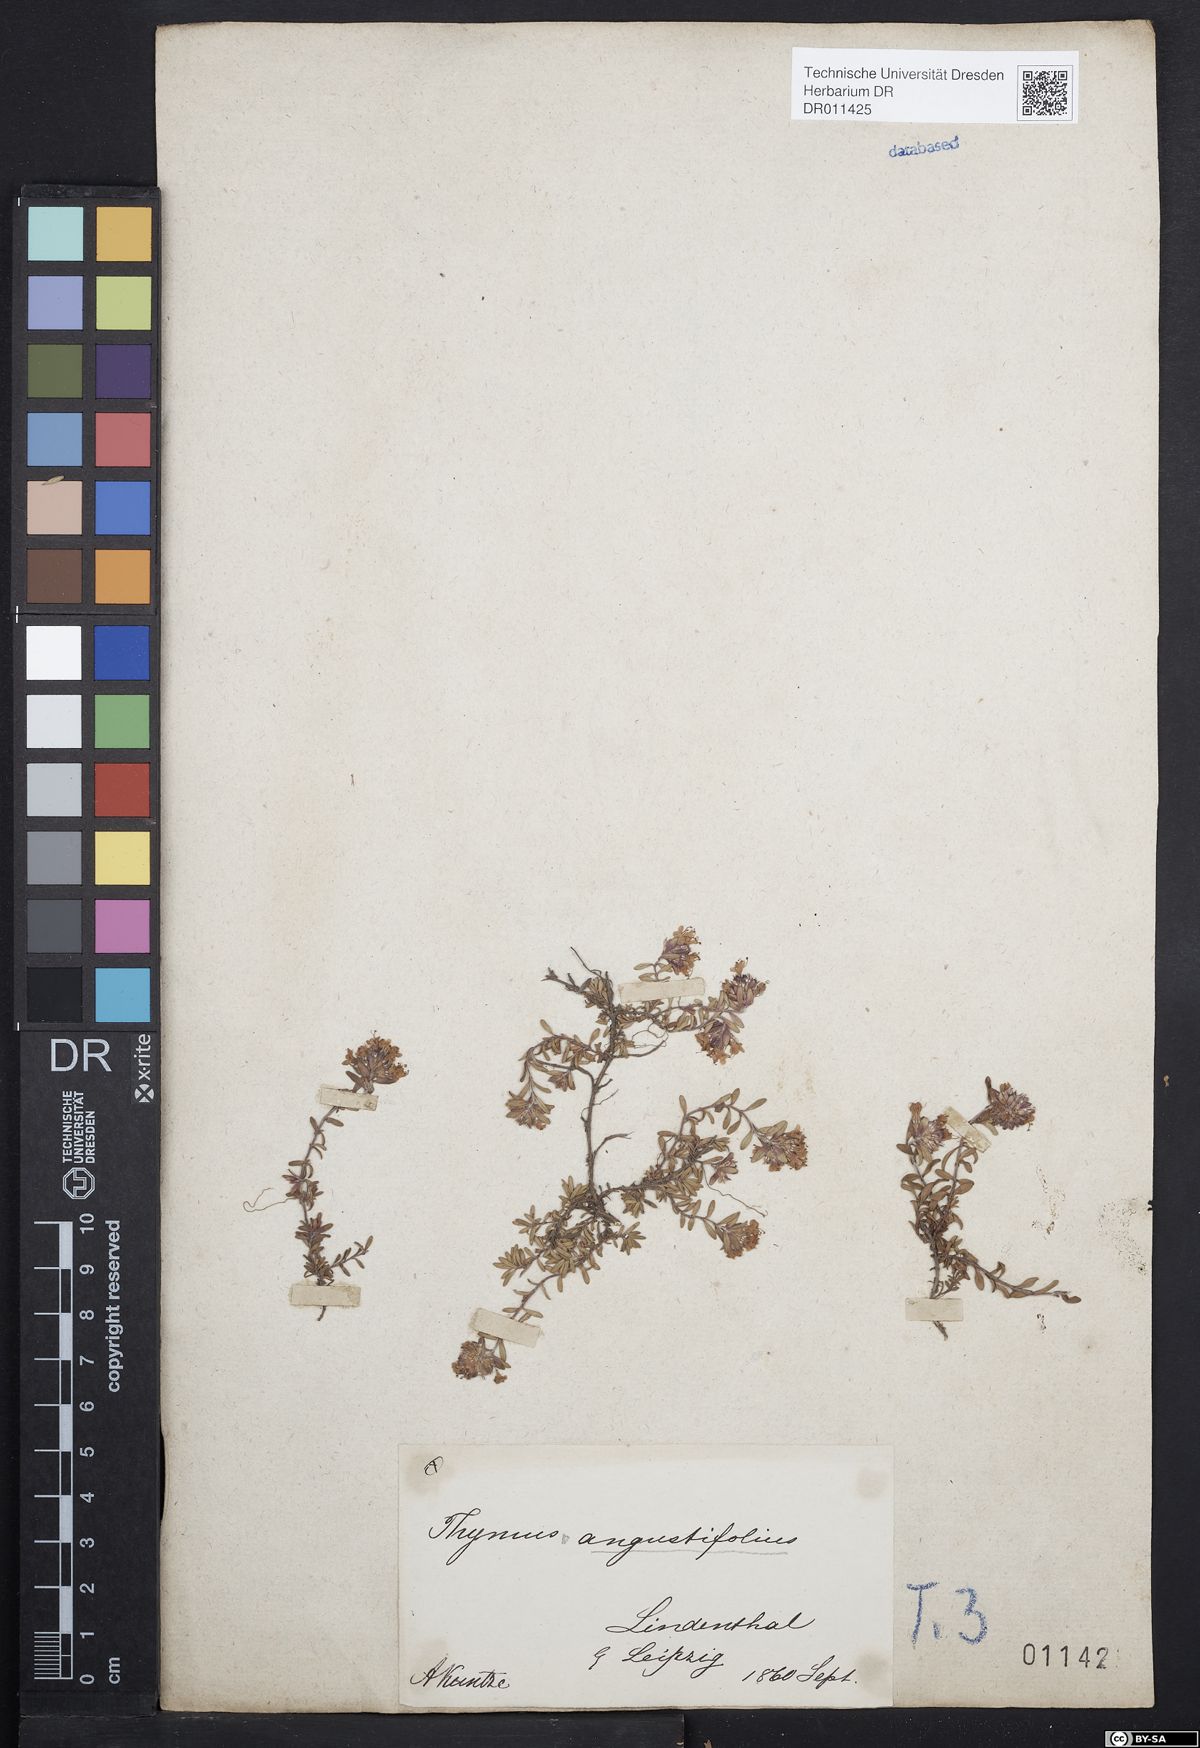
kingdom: Plantae
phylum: Tracheophyta
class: Magnoliopsida
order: Lamiales
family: Lamiaceae
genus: Thymus
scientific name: Thymus serpyllum
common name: Breckland thyme
